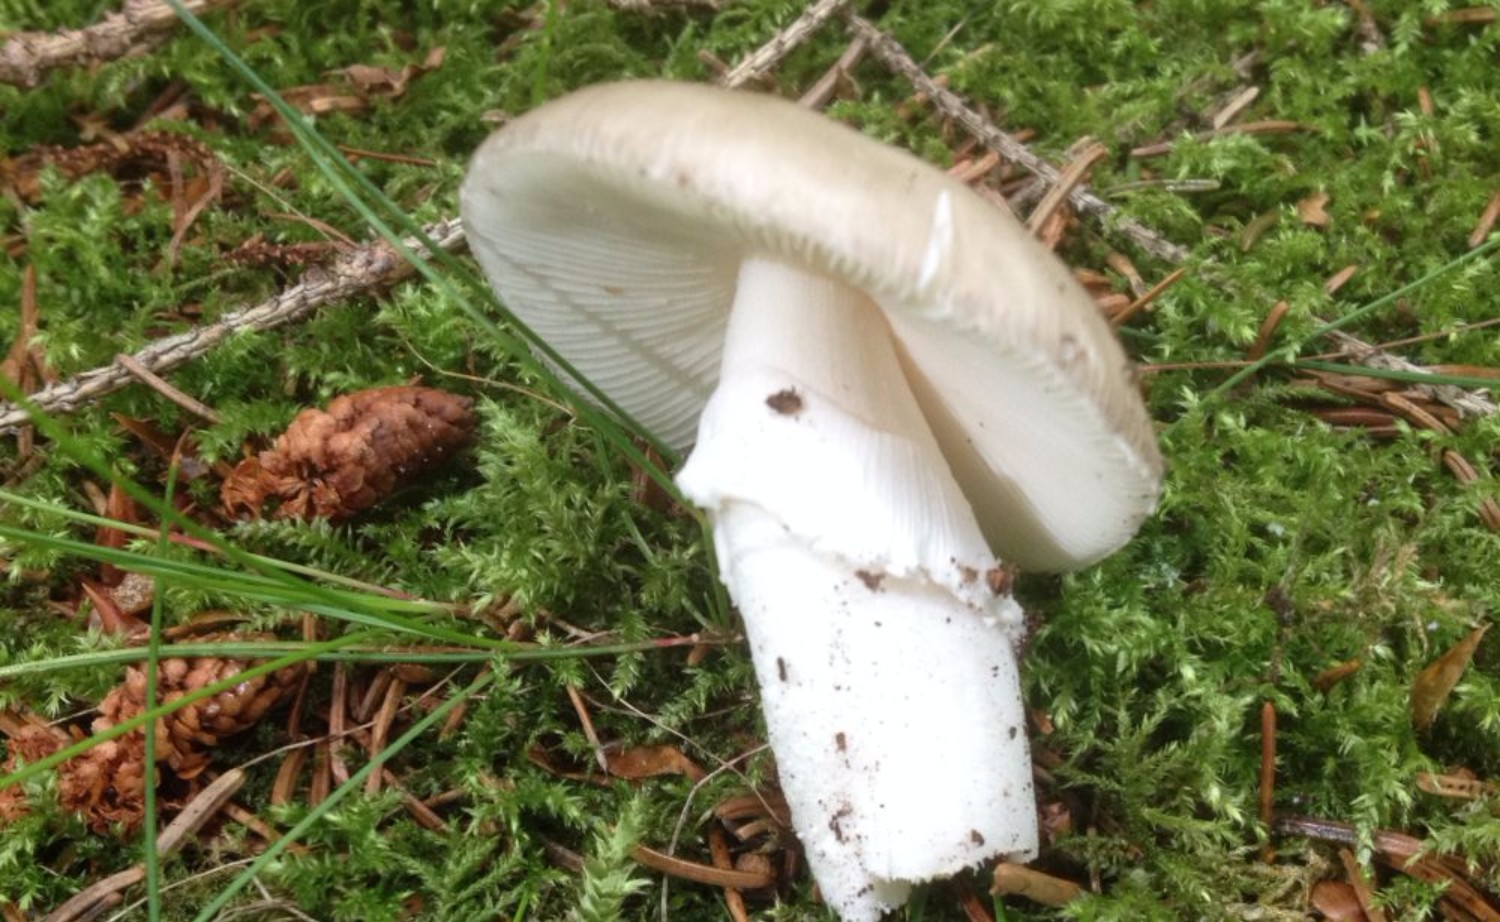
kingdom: Fungi
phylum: Basidiomycota
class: Agaricomycetes
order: Agaricales
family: Amanitaceae
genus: Amanita
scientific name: Amanita porphyria
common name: porfyr-fluesvamp
